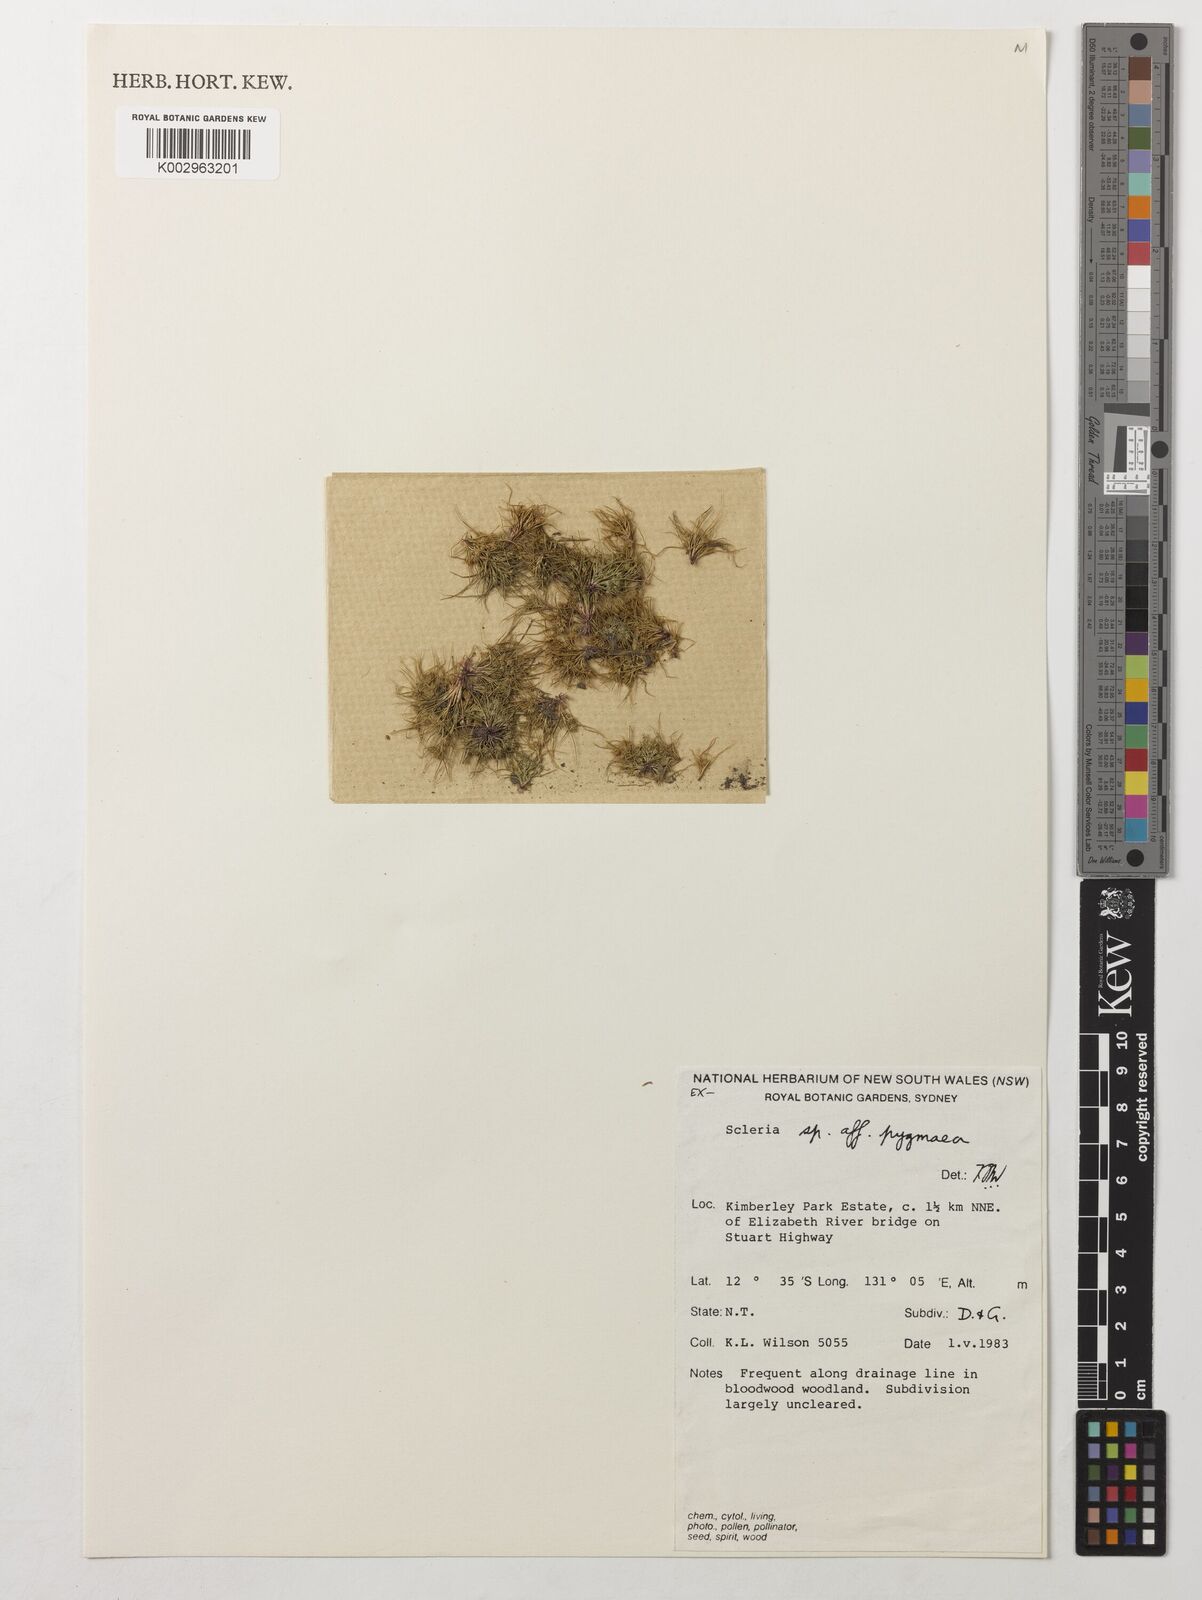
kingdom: Plantae
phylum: Tracheophyta
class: Liliopsida
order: Poales
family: Cyperaceae
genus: Diplacrum
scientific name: Diplacrum pygmaeum
